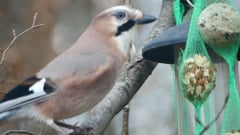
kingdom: Animalia
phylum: Chordata
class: Aves
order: Passeriformes
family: Corvidae
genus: Garrulus
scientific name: Garrulus glandarius
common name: Eurasian jay
